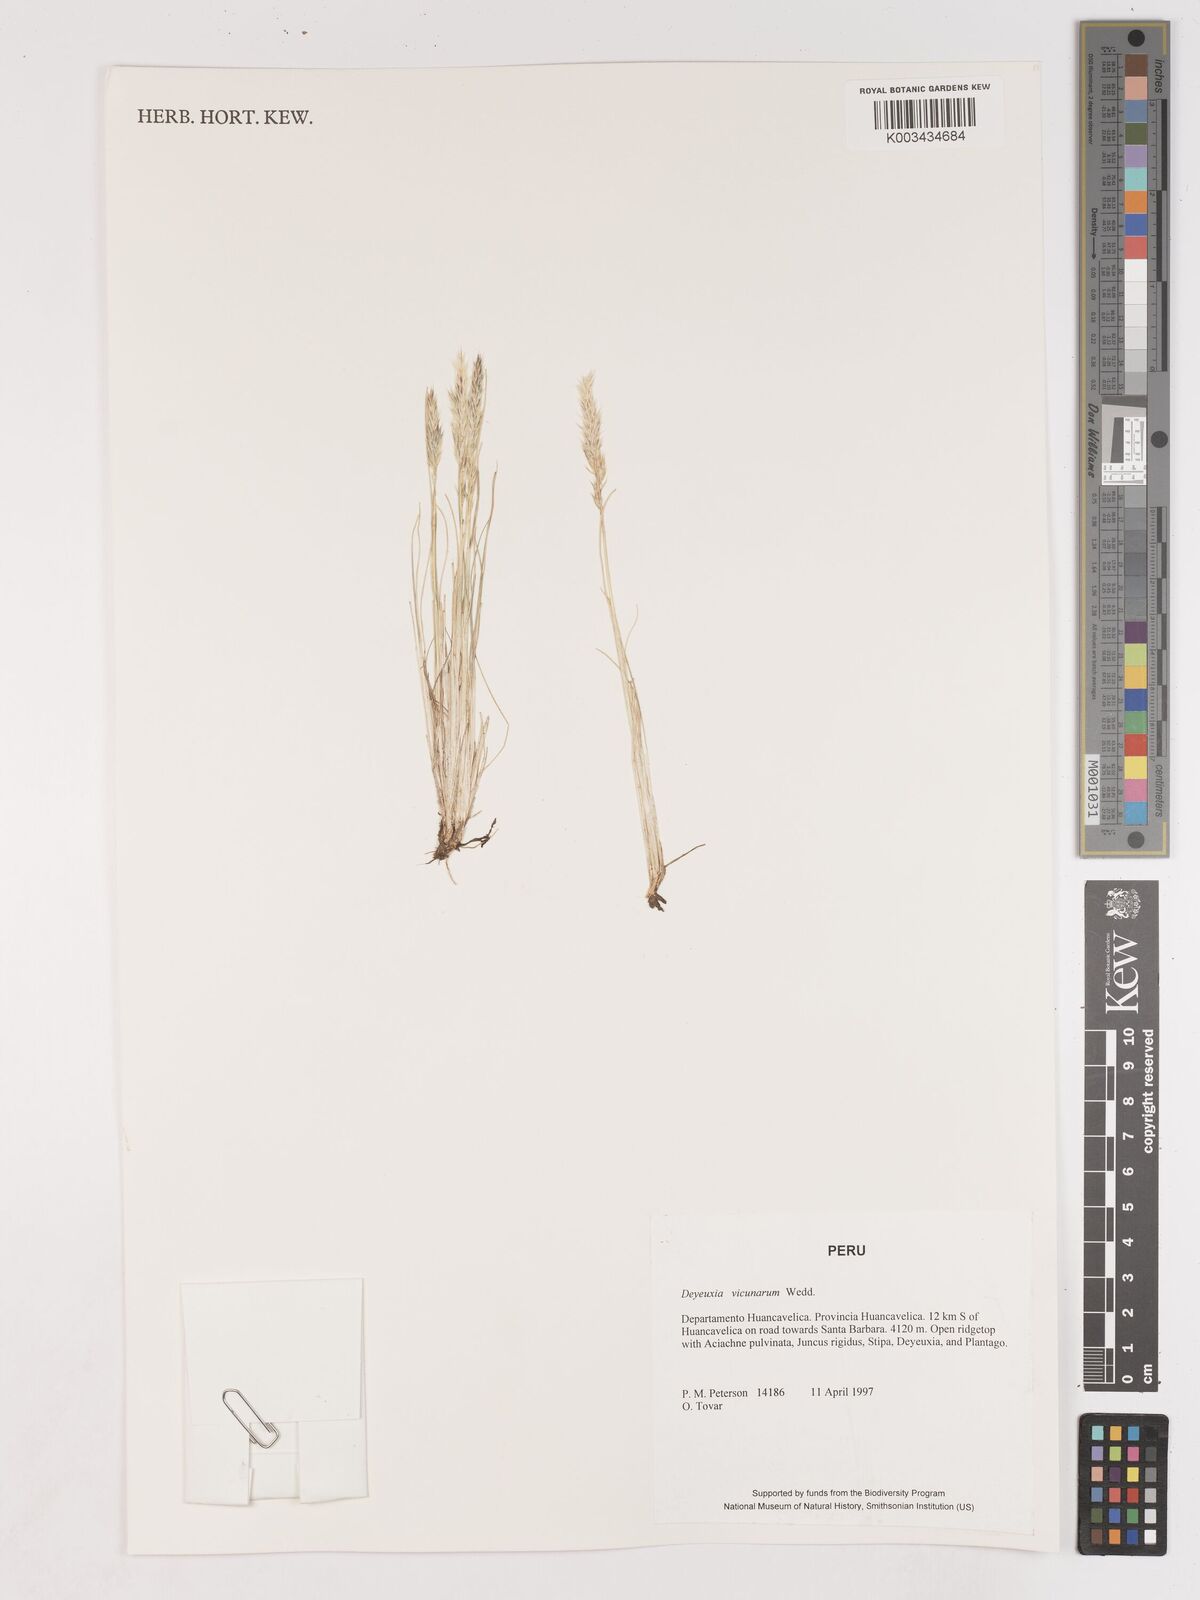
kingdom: Plantae
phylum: Tracheophyta
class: Liliopsida
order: Poales
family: Poaceae
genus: Cinnagrostis
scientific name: Cinnagrostis vicunarum
